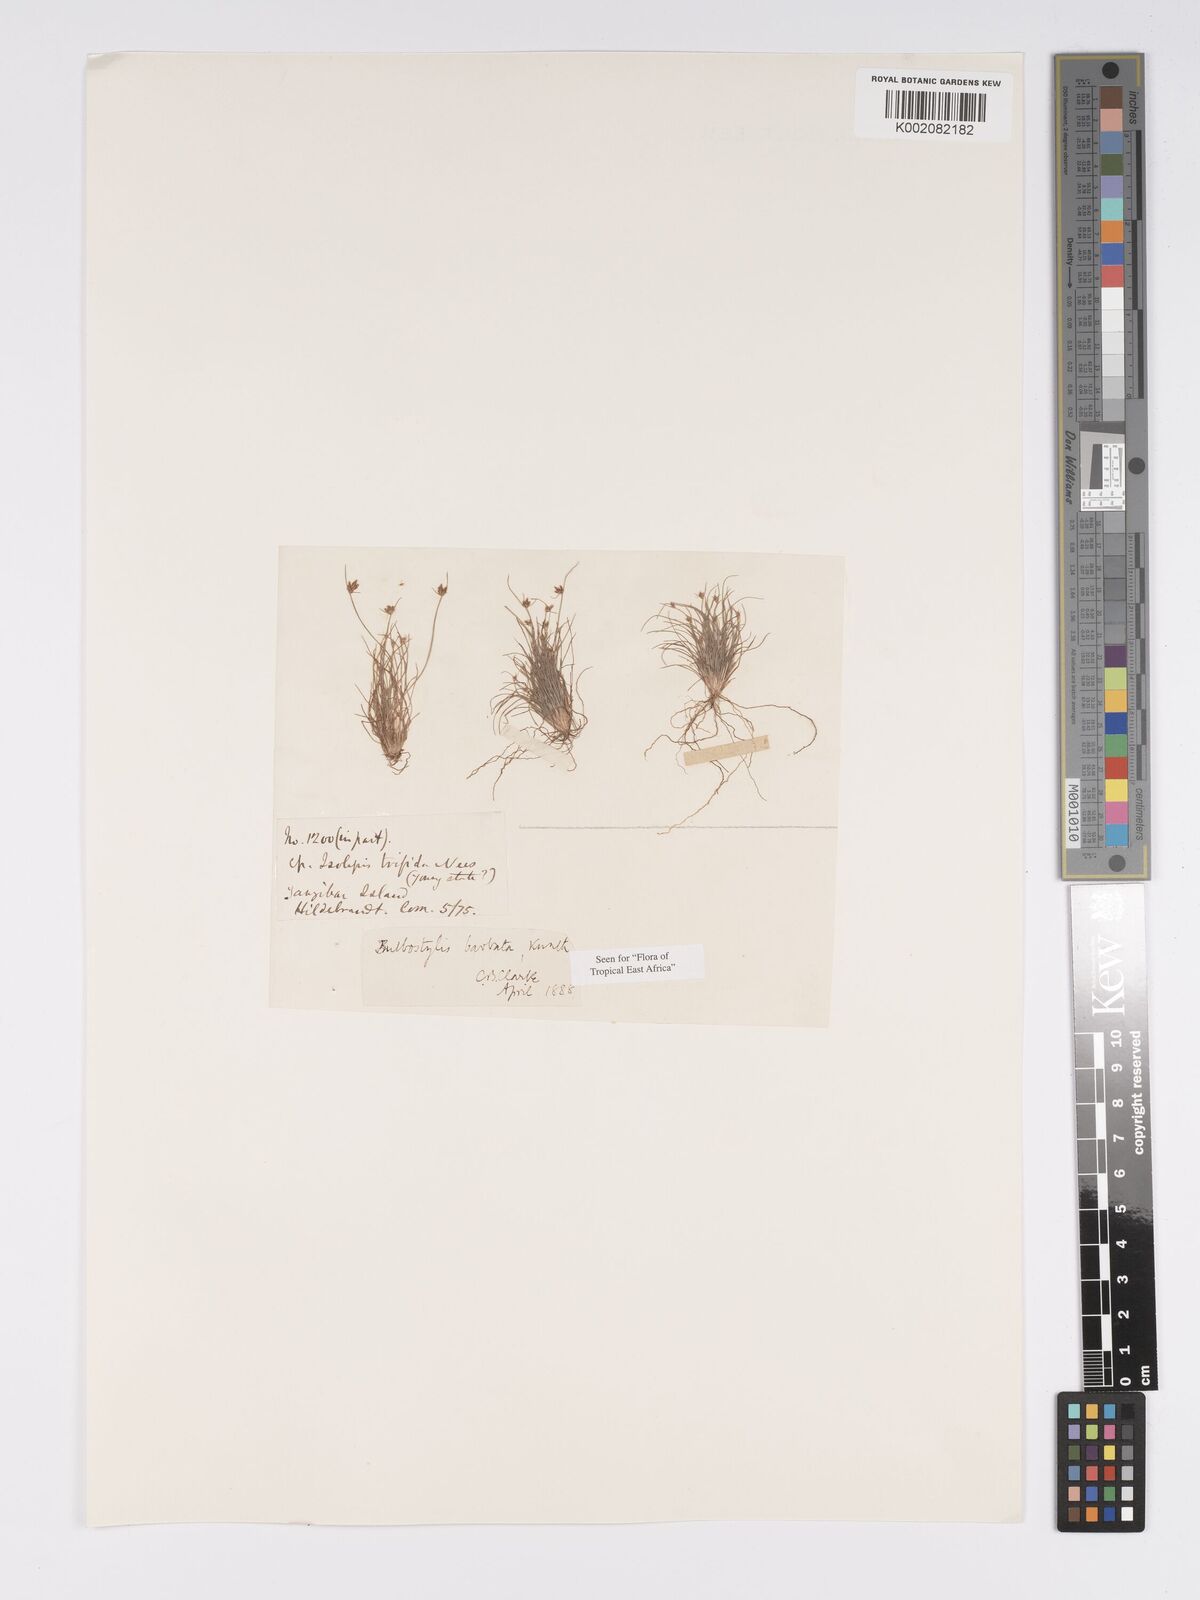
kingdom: Plantae
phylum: Tracheophyta
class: Liliopsida
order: Poales
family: Cyperaceae
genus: Bulbostylis
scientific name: Bulbostylis barbata
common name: Watergrass
